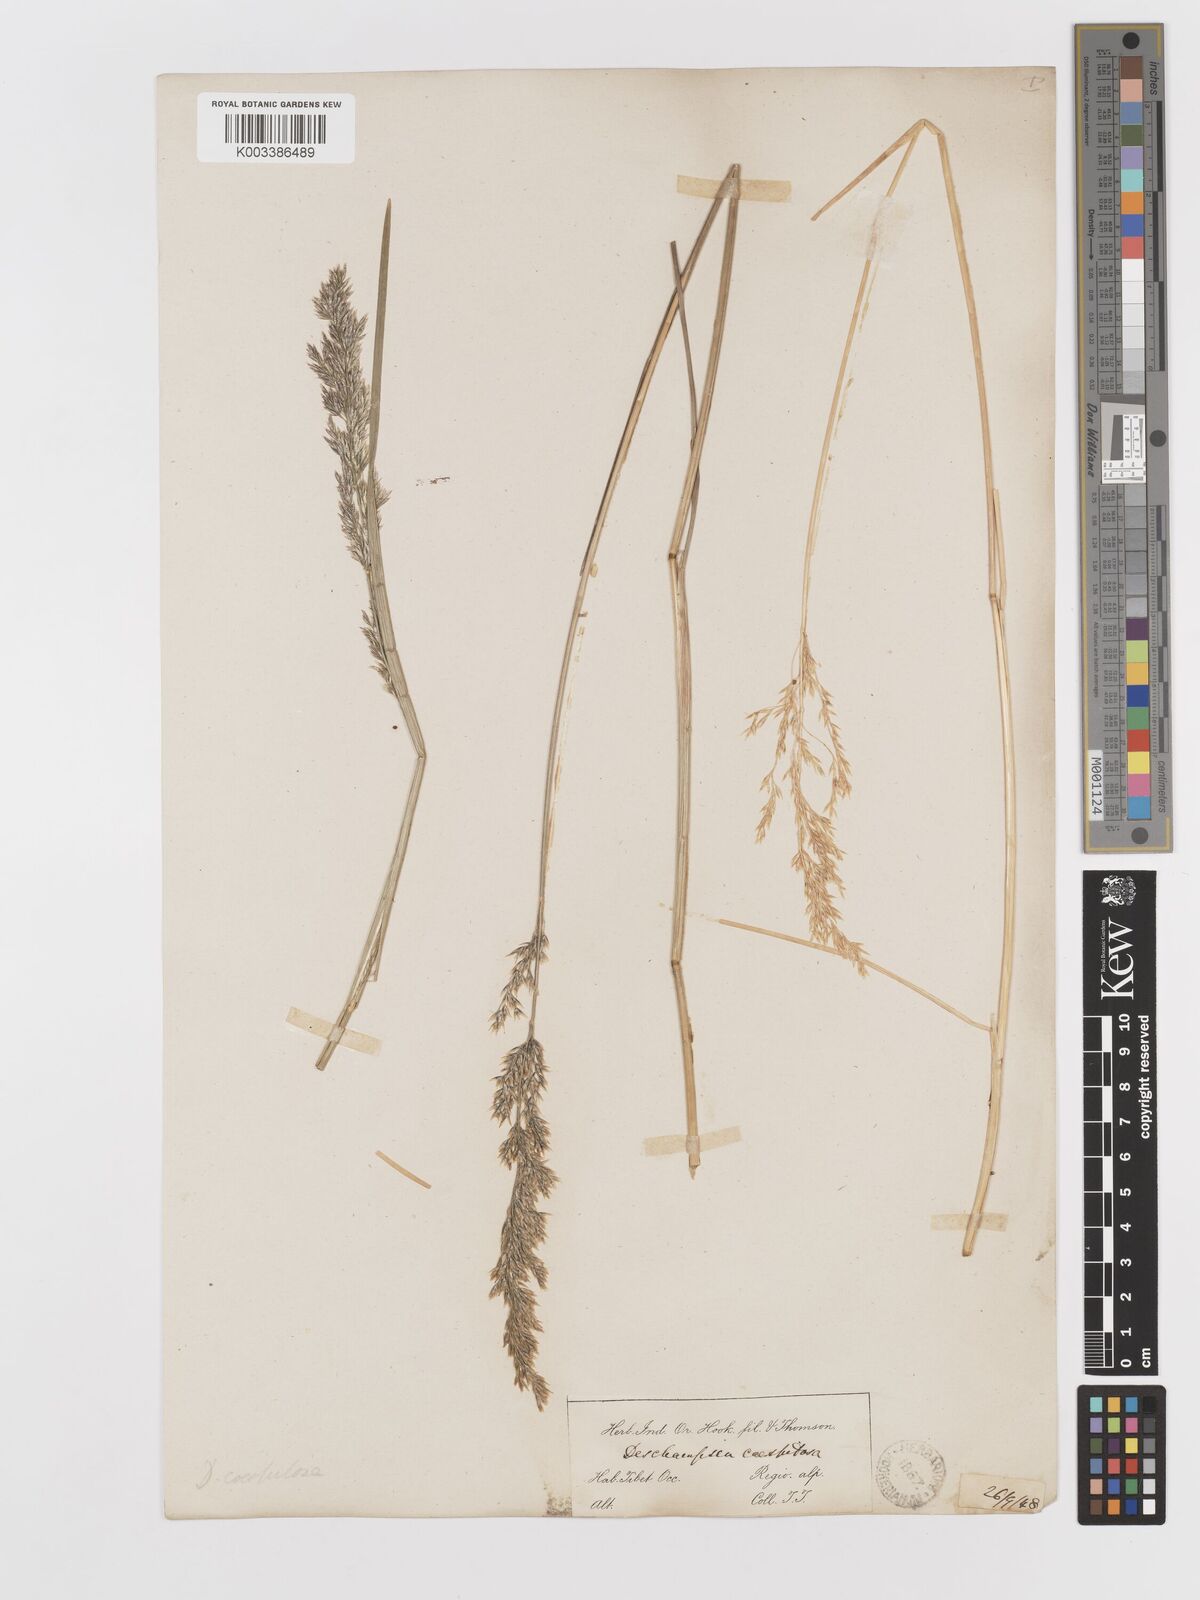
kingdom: Plantae
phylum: Tracheophyta
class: Liliopsida
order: Poales
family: Poaceae
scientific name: Poaceae
